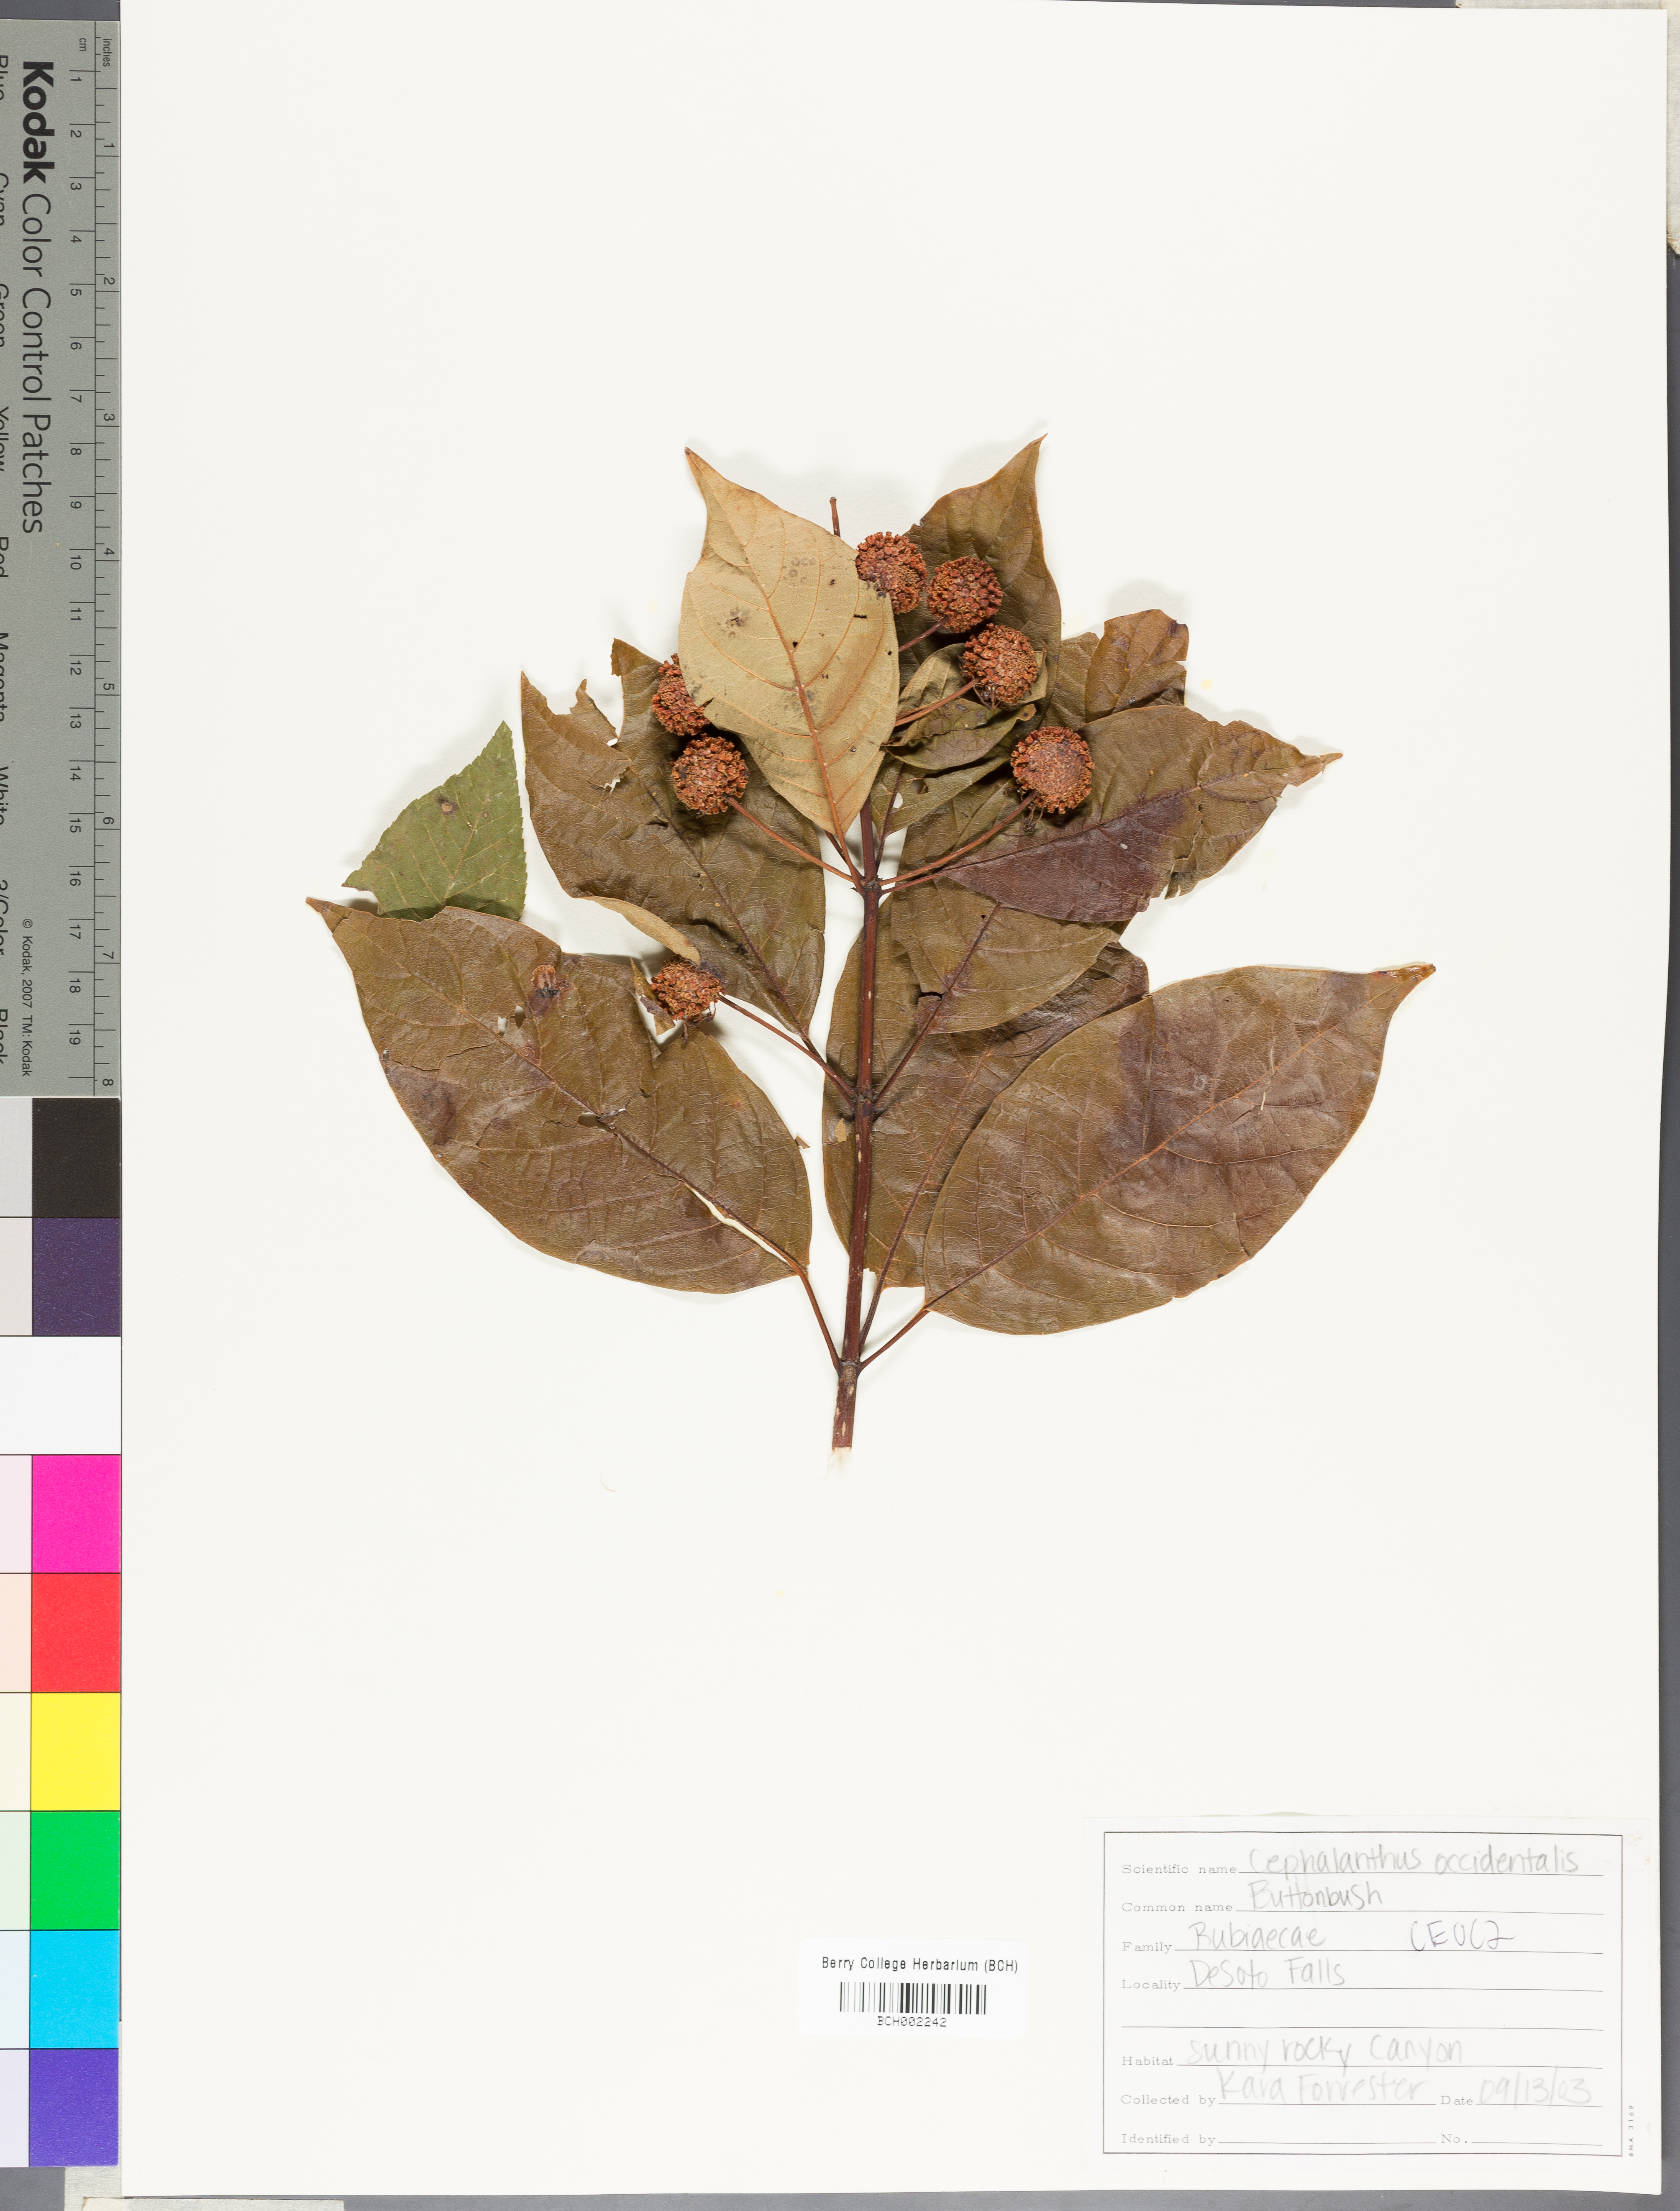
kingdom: Plantae
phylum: Tracheophyta
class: Magnoliopsida
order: Gentianales
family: Rubiaceae
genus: Cephalanthus
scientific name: Cephalanthus occidentalis
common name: Button-willow
